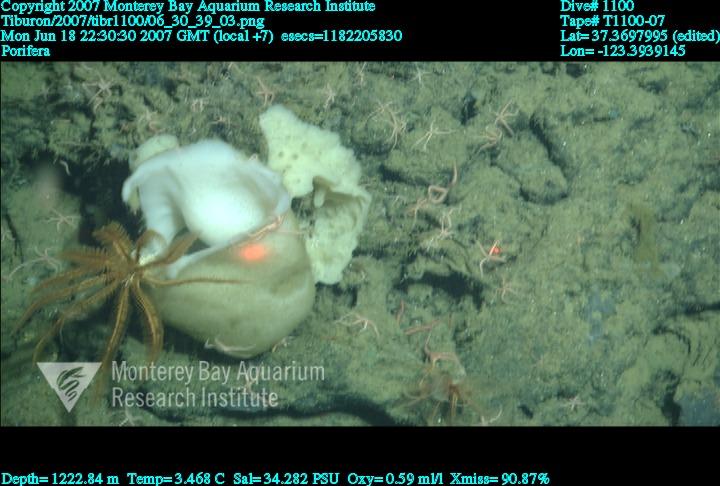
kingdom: Animalia
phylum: Porifera
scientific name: Porifera
